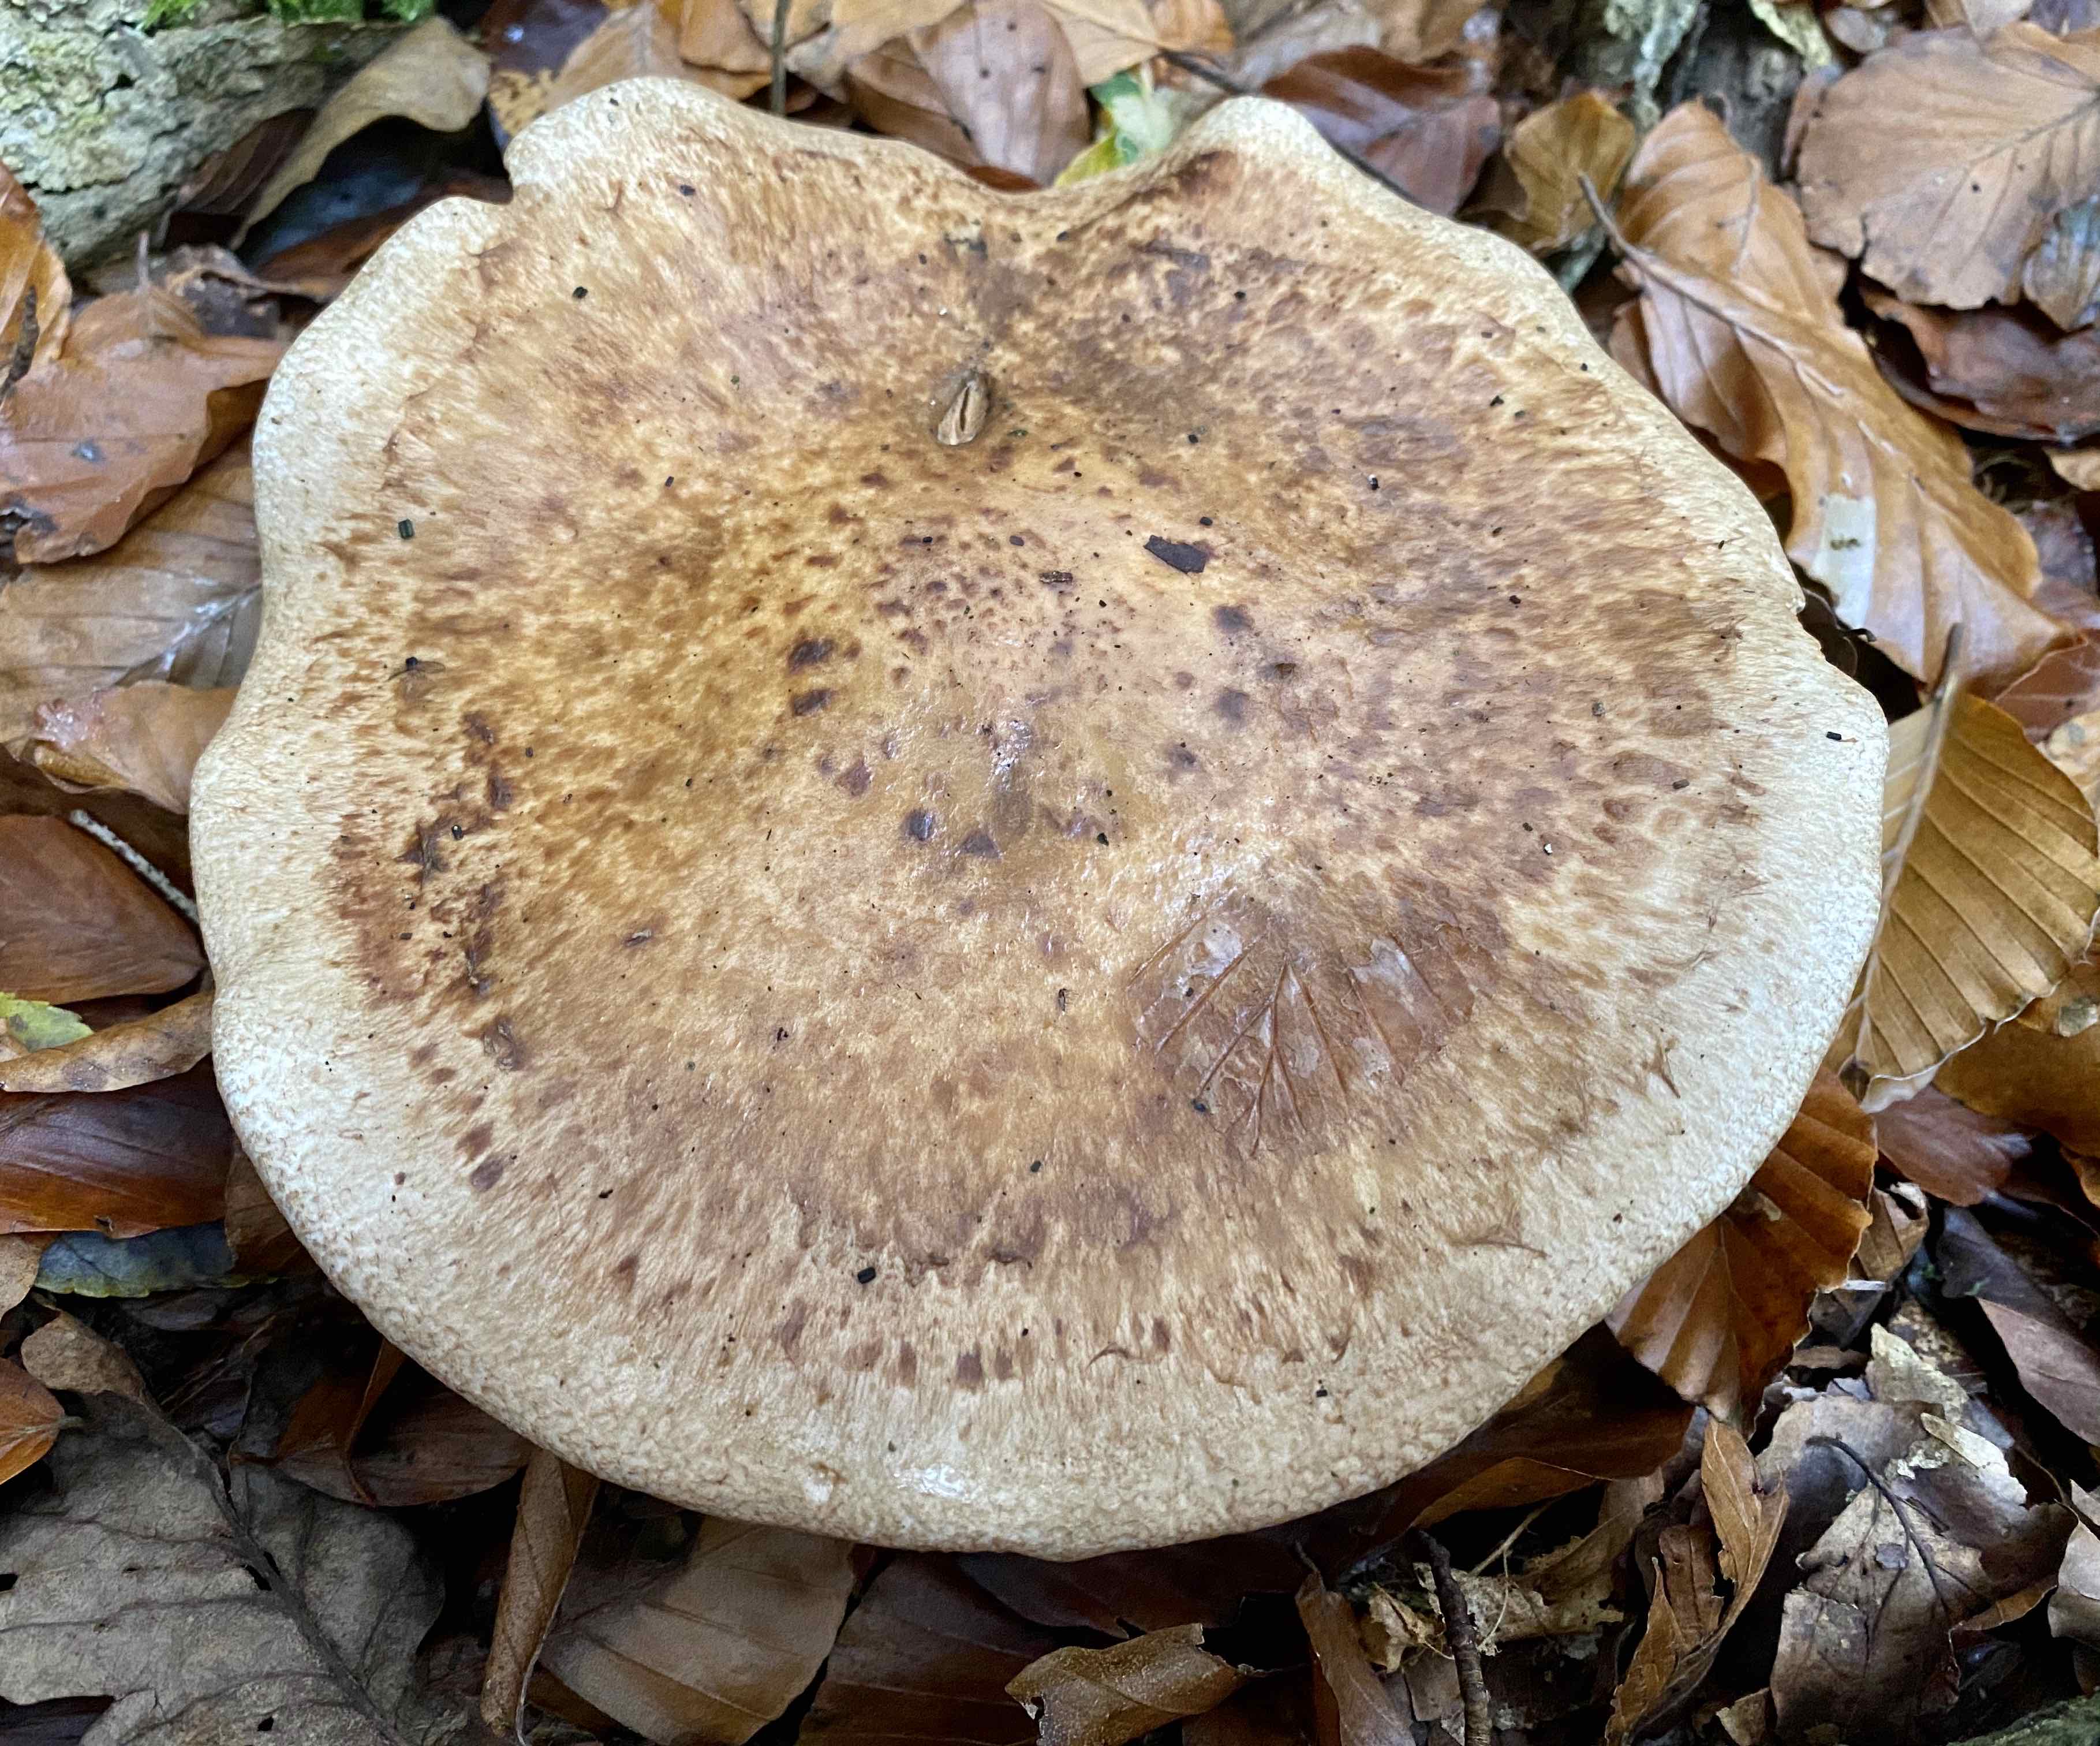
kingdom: Fungi
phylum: Basidiomycota
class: Agaricomycetes
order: Agaricales
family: Hymenogastraceae
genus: Hebeloma
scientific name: Hebeloma radicosum
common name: pælerods-tåreblad
